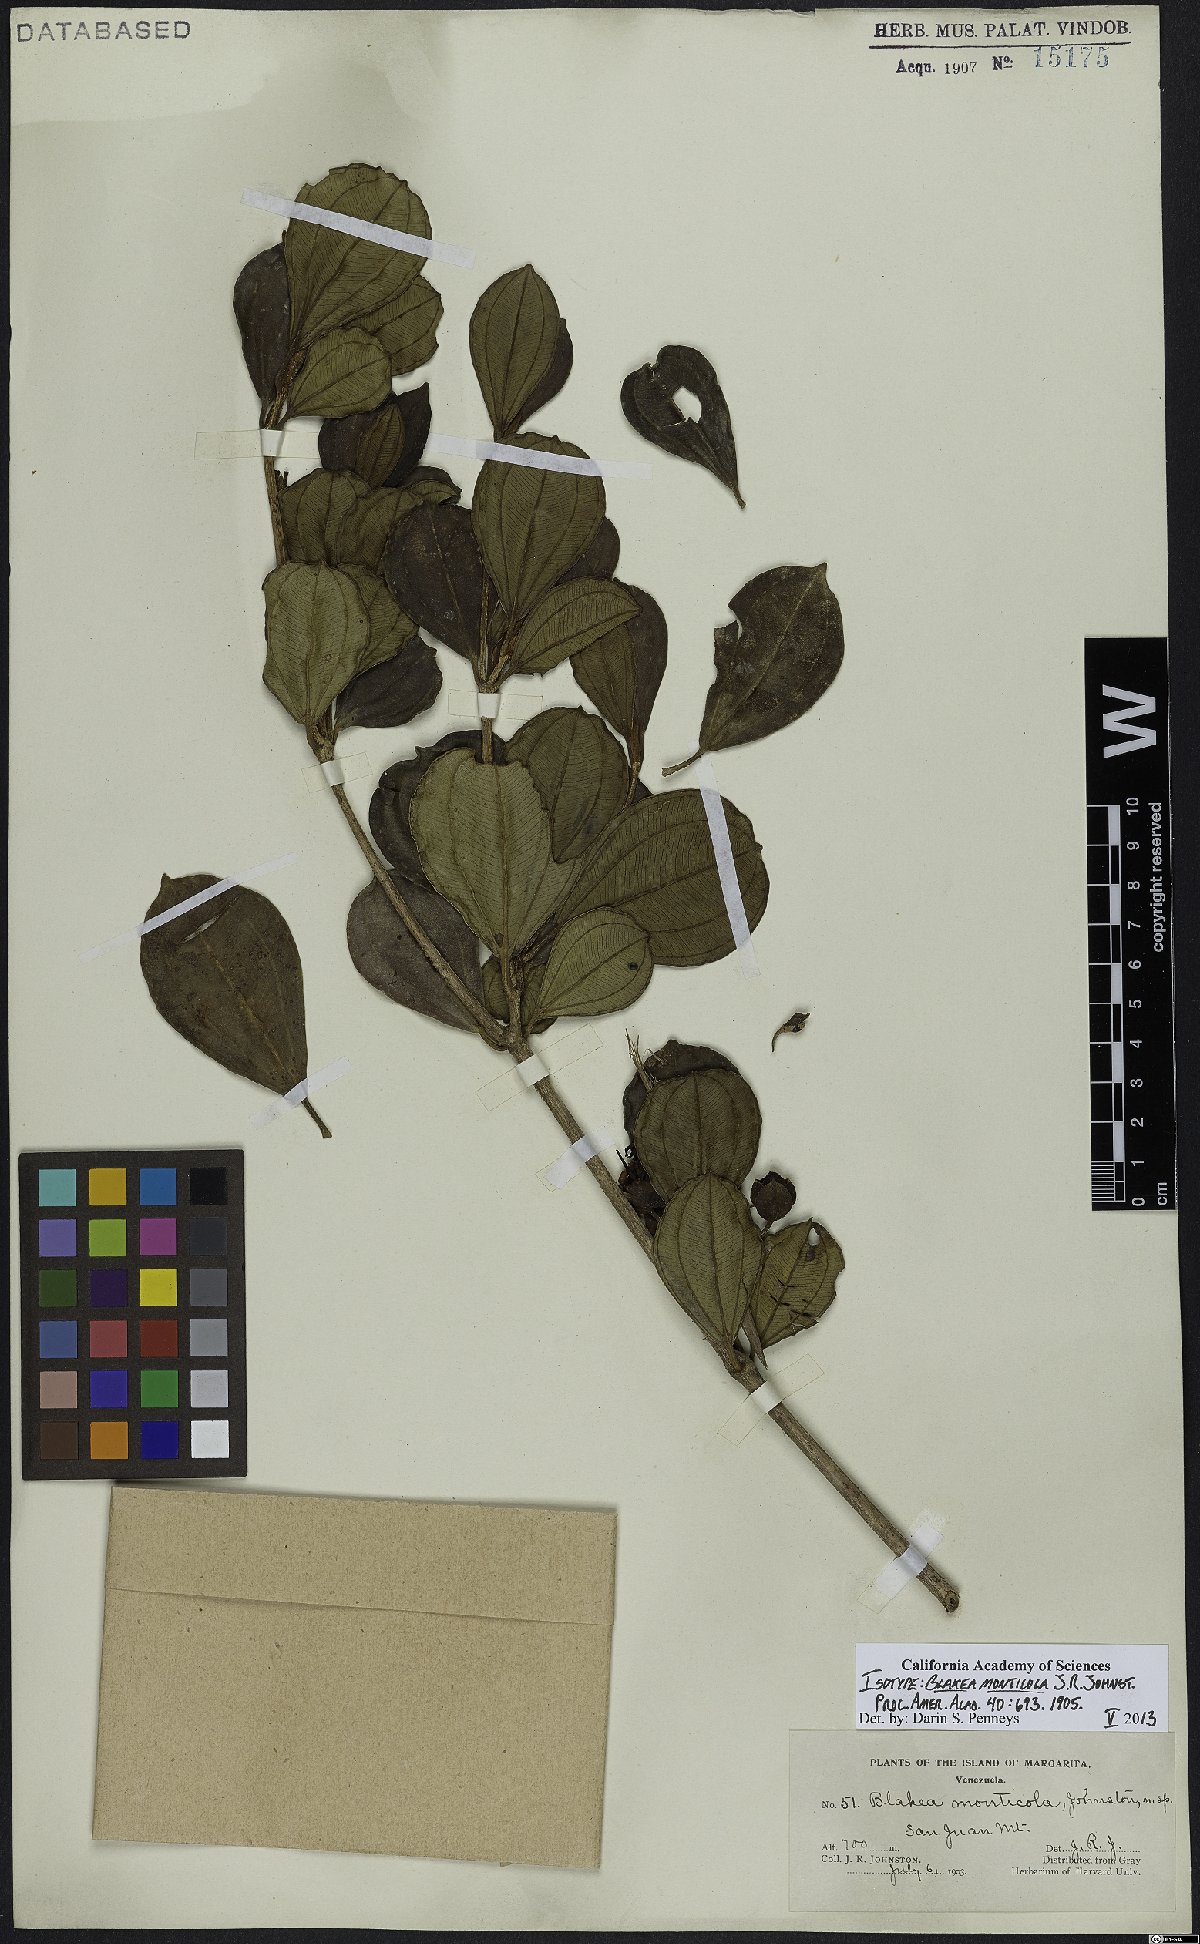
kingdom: Plantae
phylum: Tracheophyta
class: Magnoliopsida
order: Myrtales
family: Melastomataceae
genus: Blakea
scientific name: Blakea monticola
